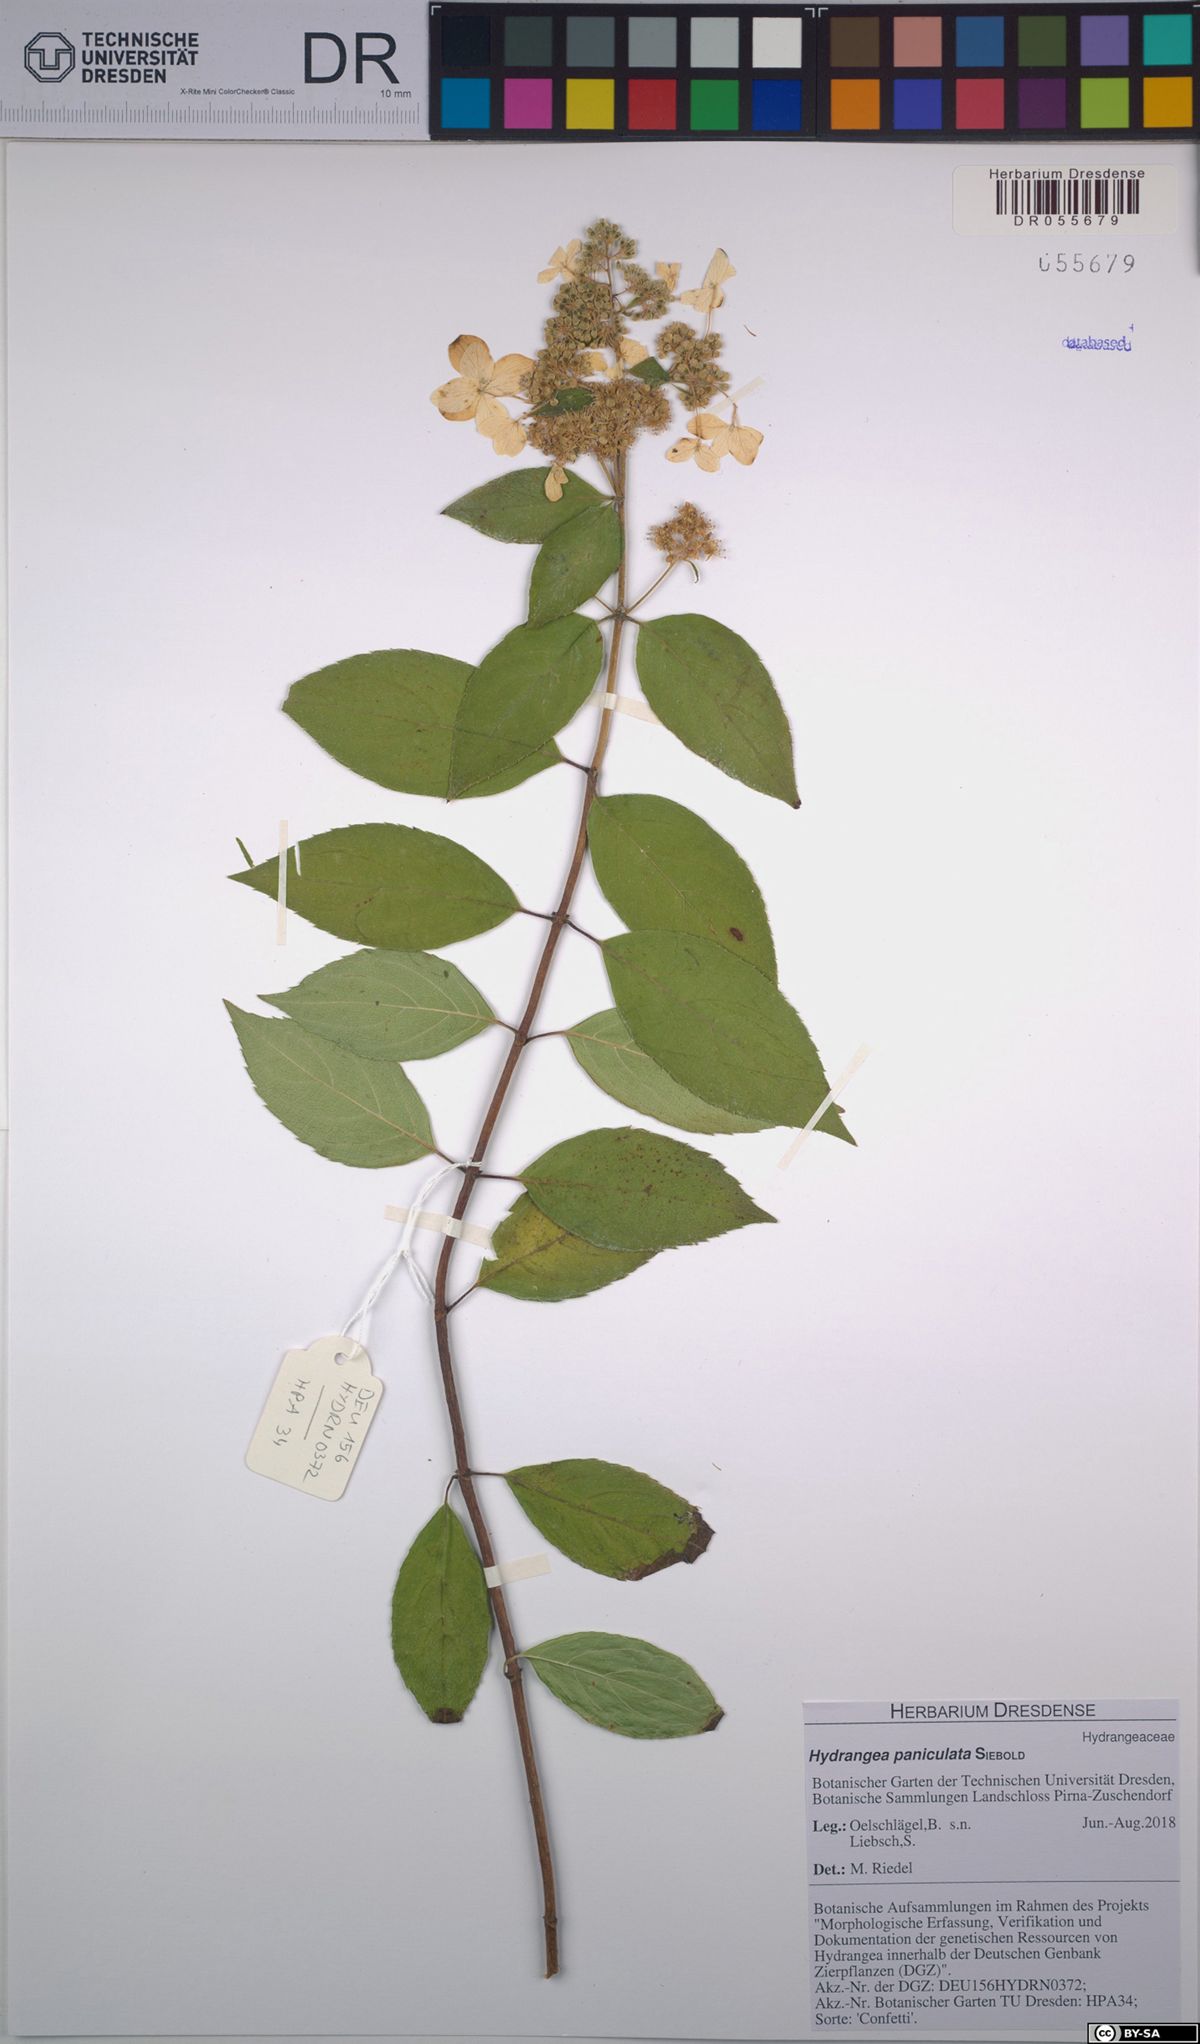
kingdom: Plantae
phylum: Tracheophyta
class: Magnoliopsida
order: Cornales
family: Hydrangeaceae
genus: Hydrangea
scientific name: Hydrangea paniculata
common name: Panicled hydrangea
